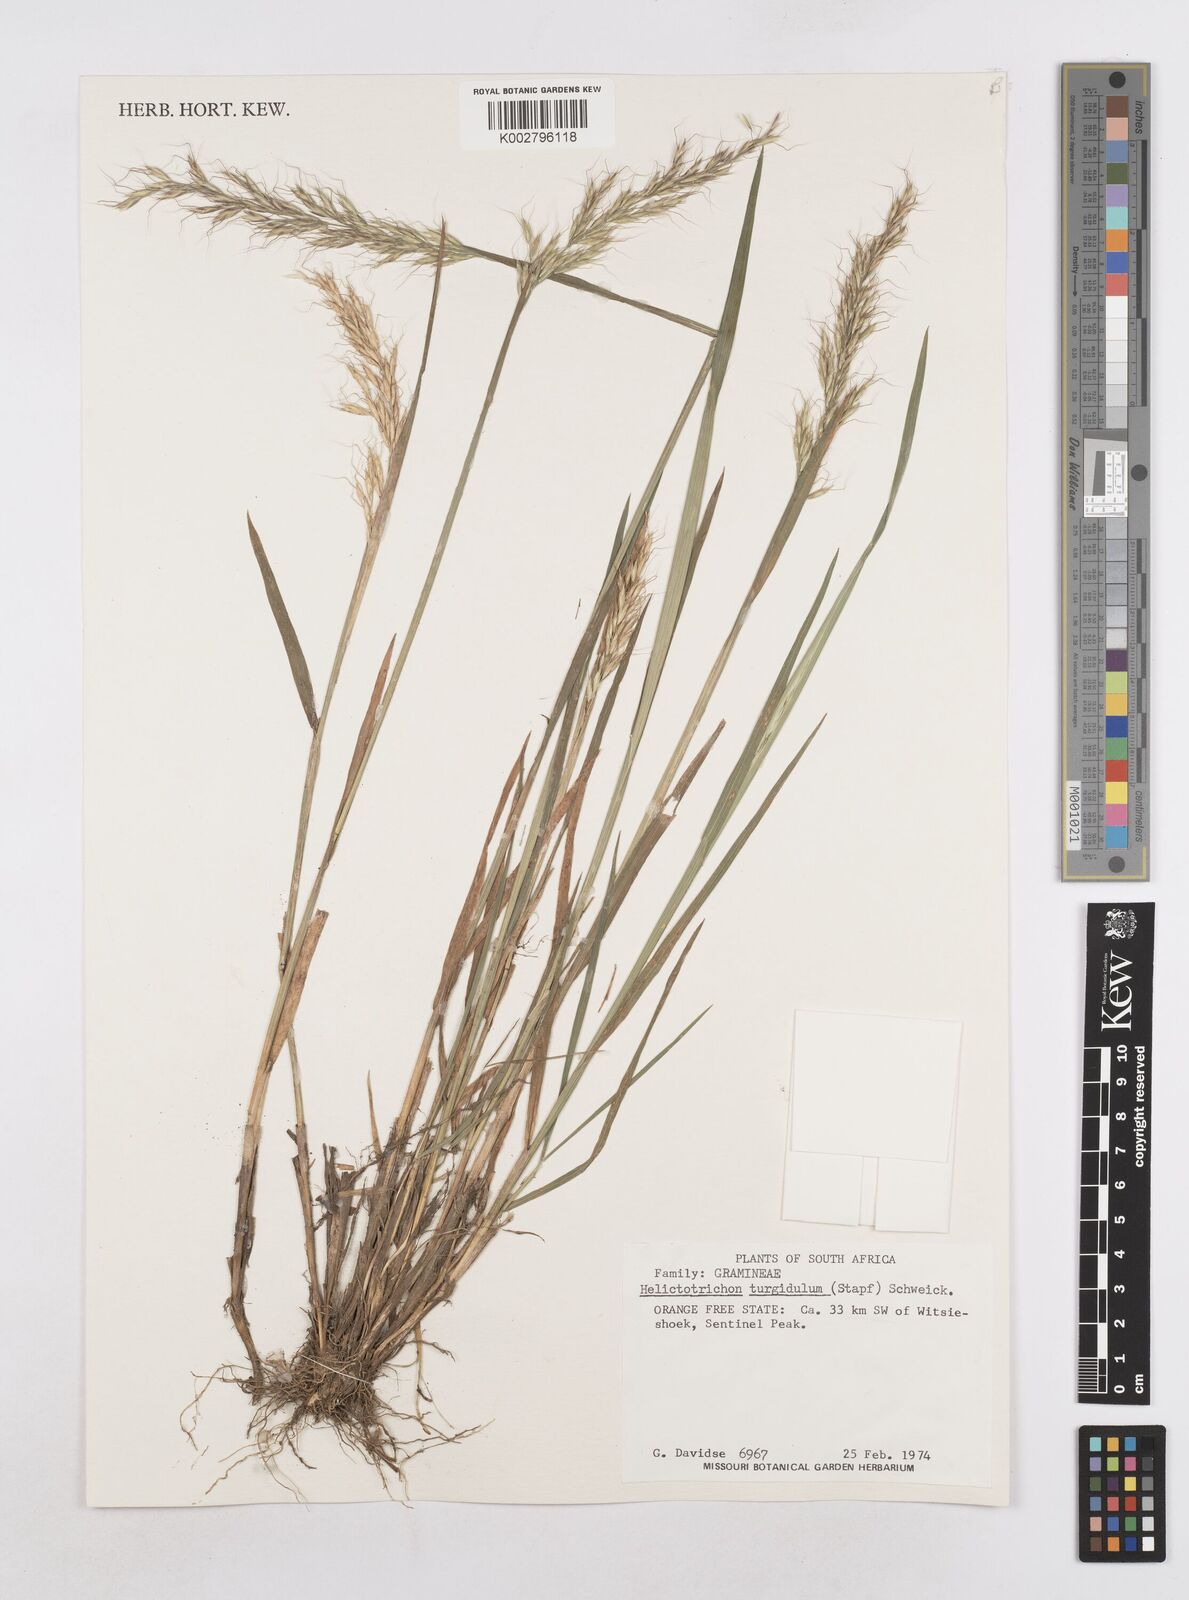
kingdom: Plantae
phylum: Tracheophyta
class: Liliopsida
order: Poales
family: Poaceae
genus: Trisetopsis
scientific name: Trisetopsis imberbis
